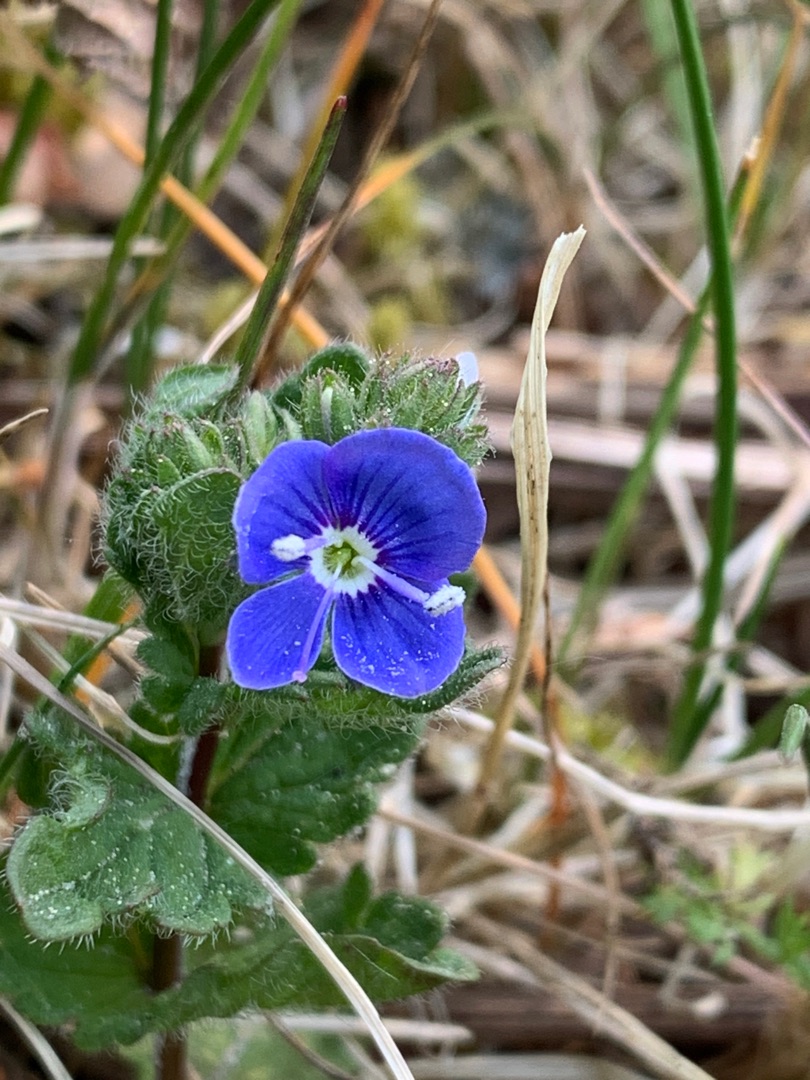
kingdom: Plantae
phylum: Tracheophyta
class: Magnoliopsida
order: Lamiales
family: Plantaginaceae
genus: Veronica
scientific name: Veronica chamaedrys
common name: Tveskægget ærenpris
